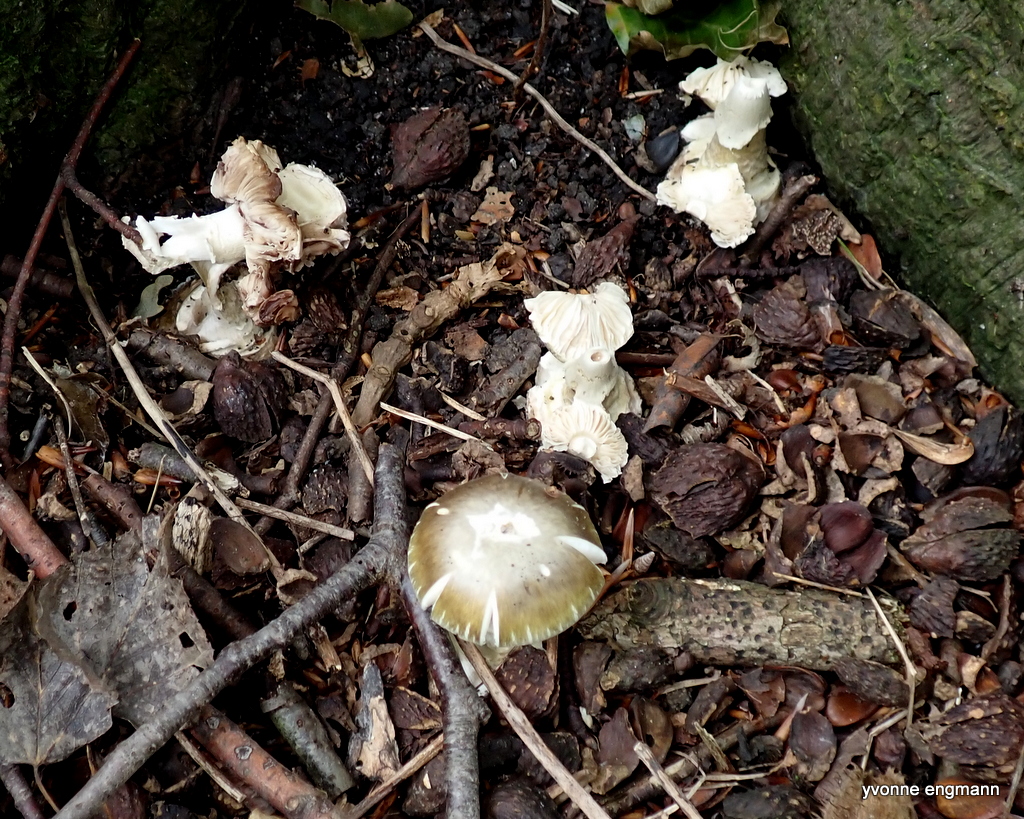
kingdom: Fungi
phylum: Basidiomycota
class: Agaricomycetes
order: Agaricales
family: Amanitaceae
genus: Amanita
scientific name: Amanita phalloides
